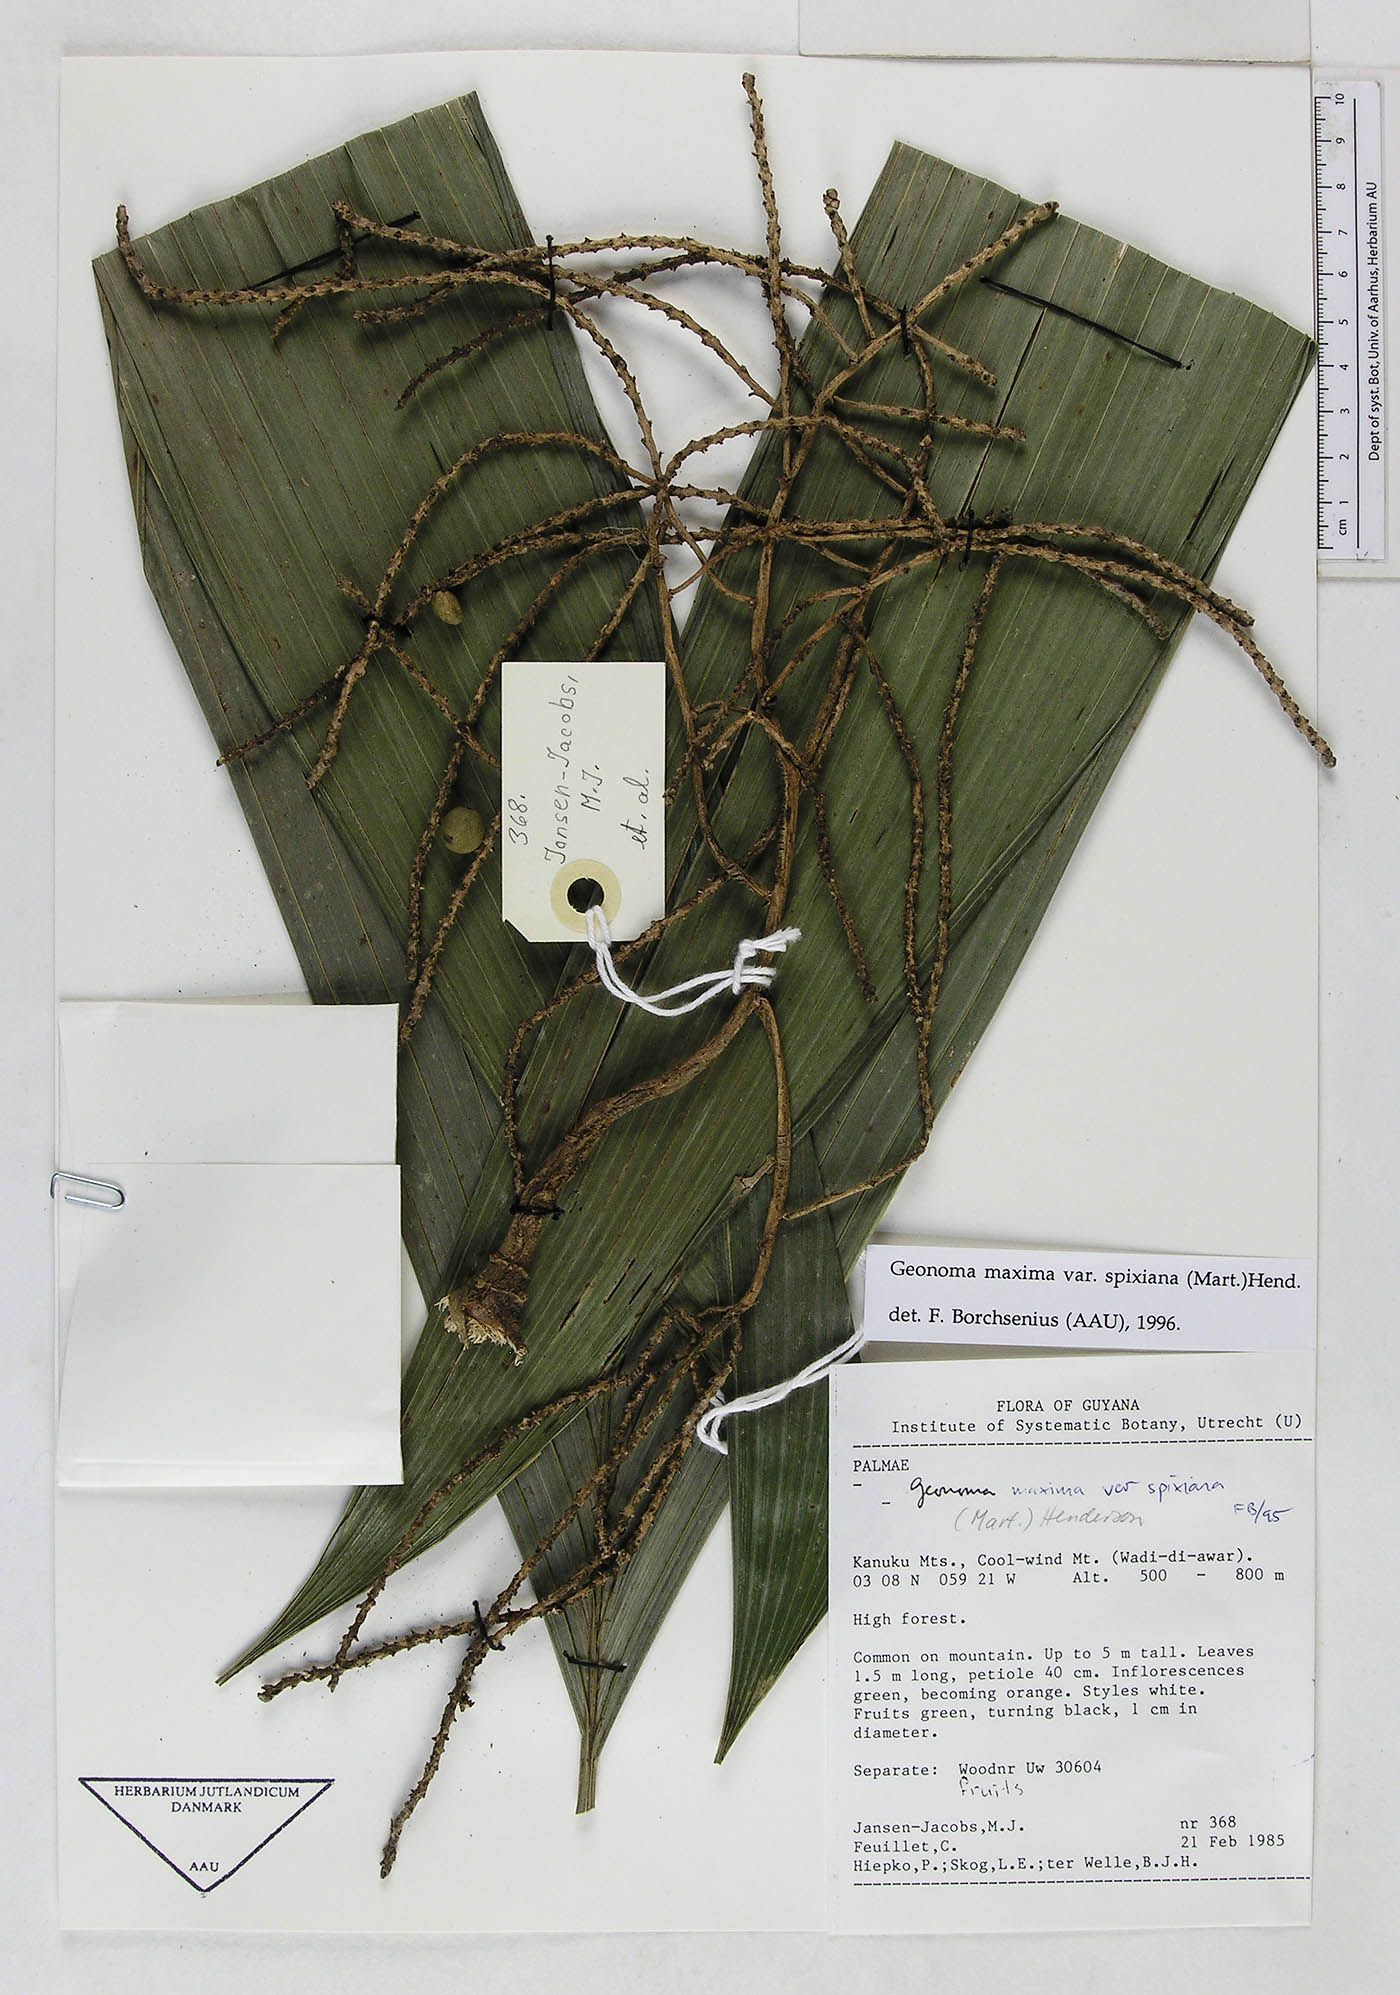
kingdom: Plantae
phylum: Tracheophyta
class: Liliopsida
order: Arecales
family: Arecaceae
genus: Geonoma
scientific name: Geonoma maxima
